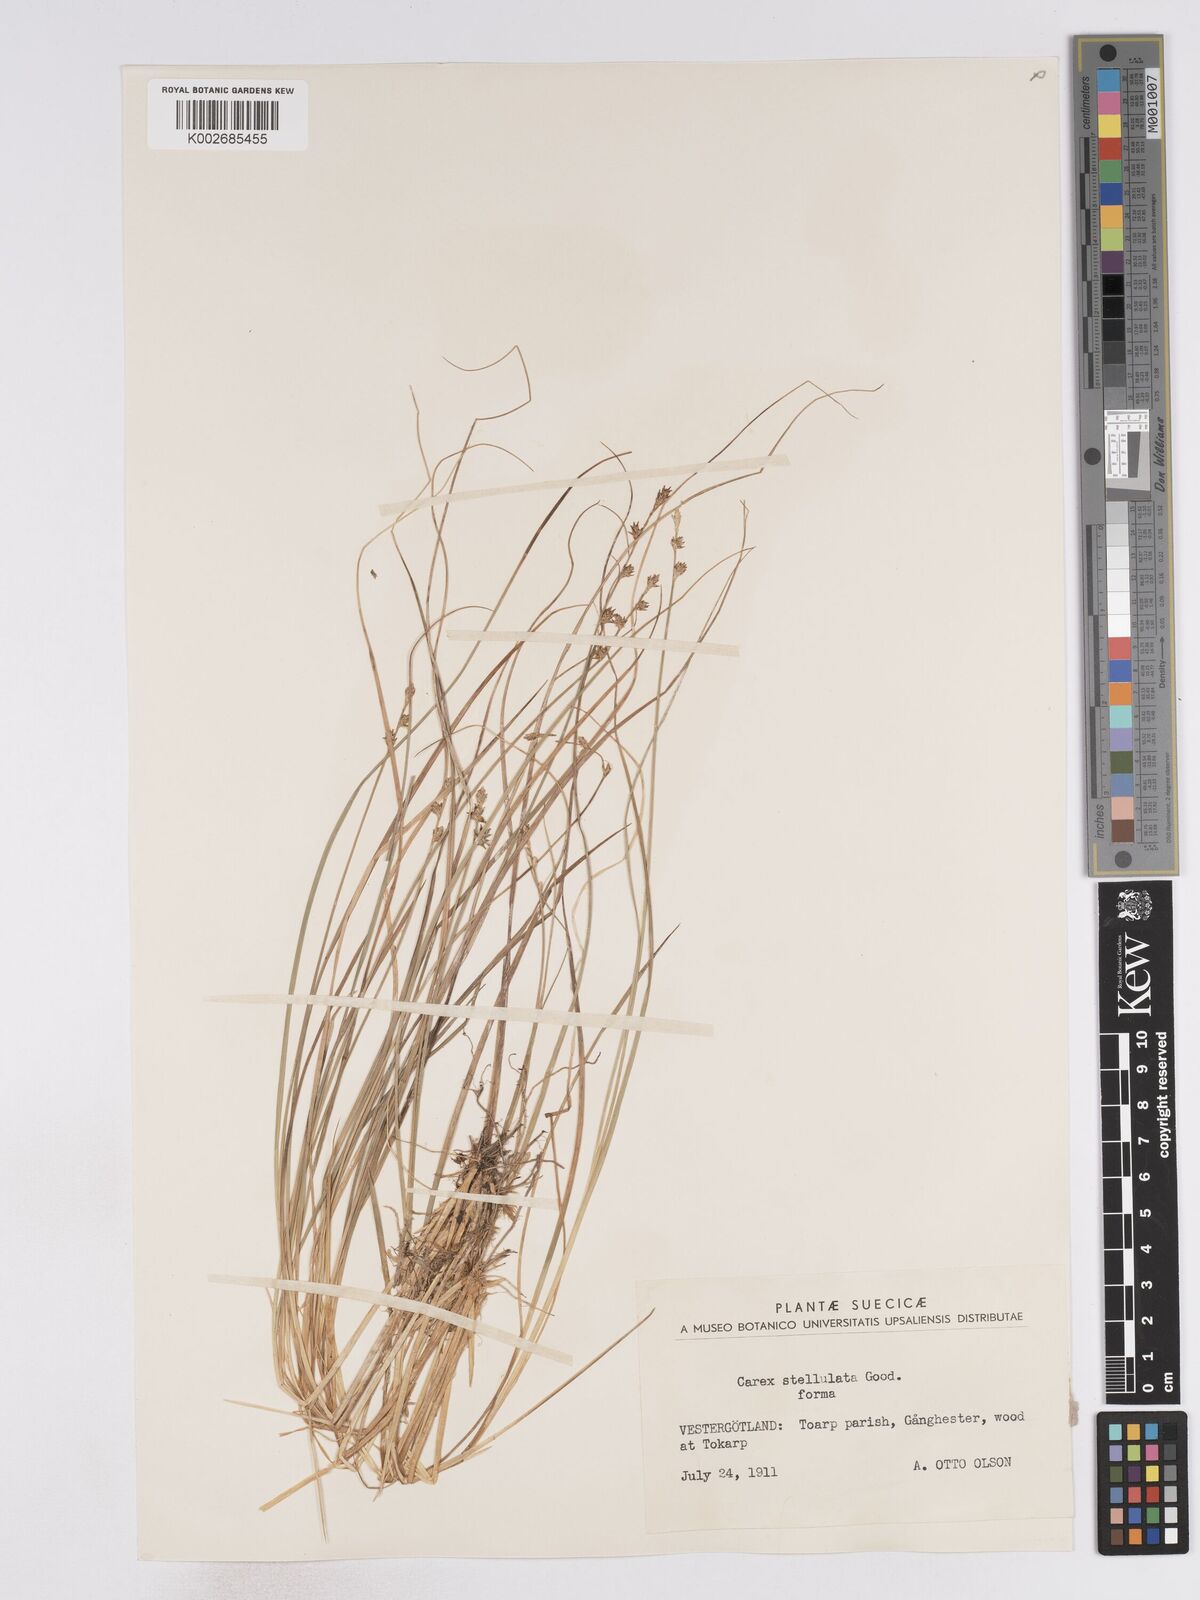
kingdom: Plantae
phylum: Tracheophyta
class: Liliopsida
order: Poales
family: Cyperaceae
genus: Carex
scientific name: Carex echinata
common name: Star sedge
